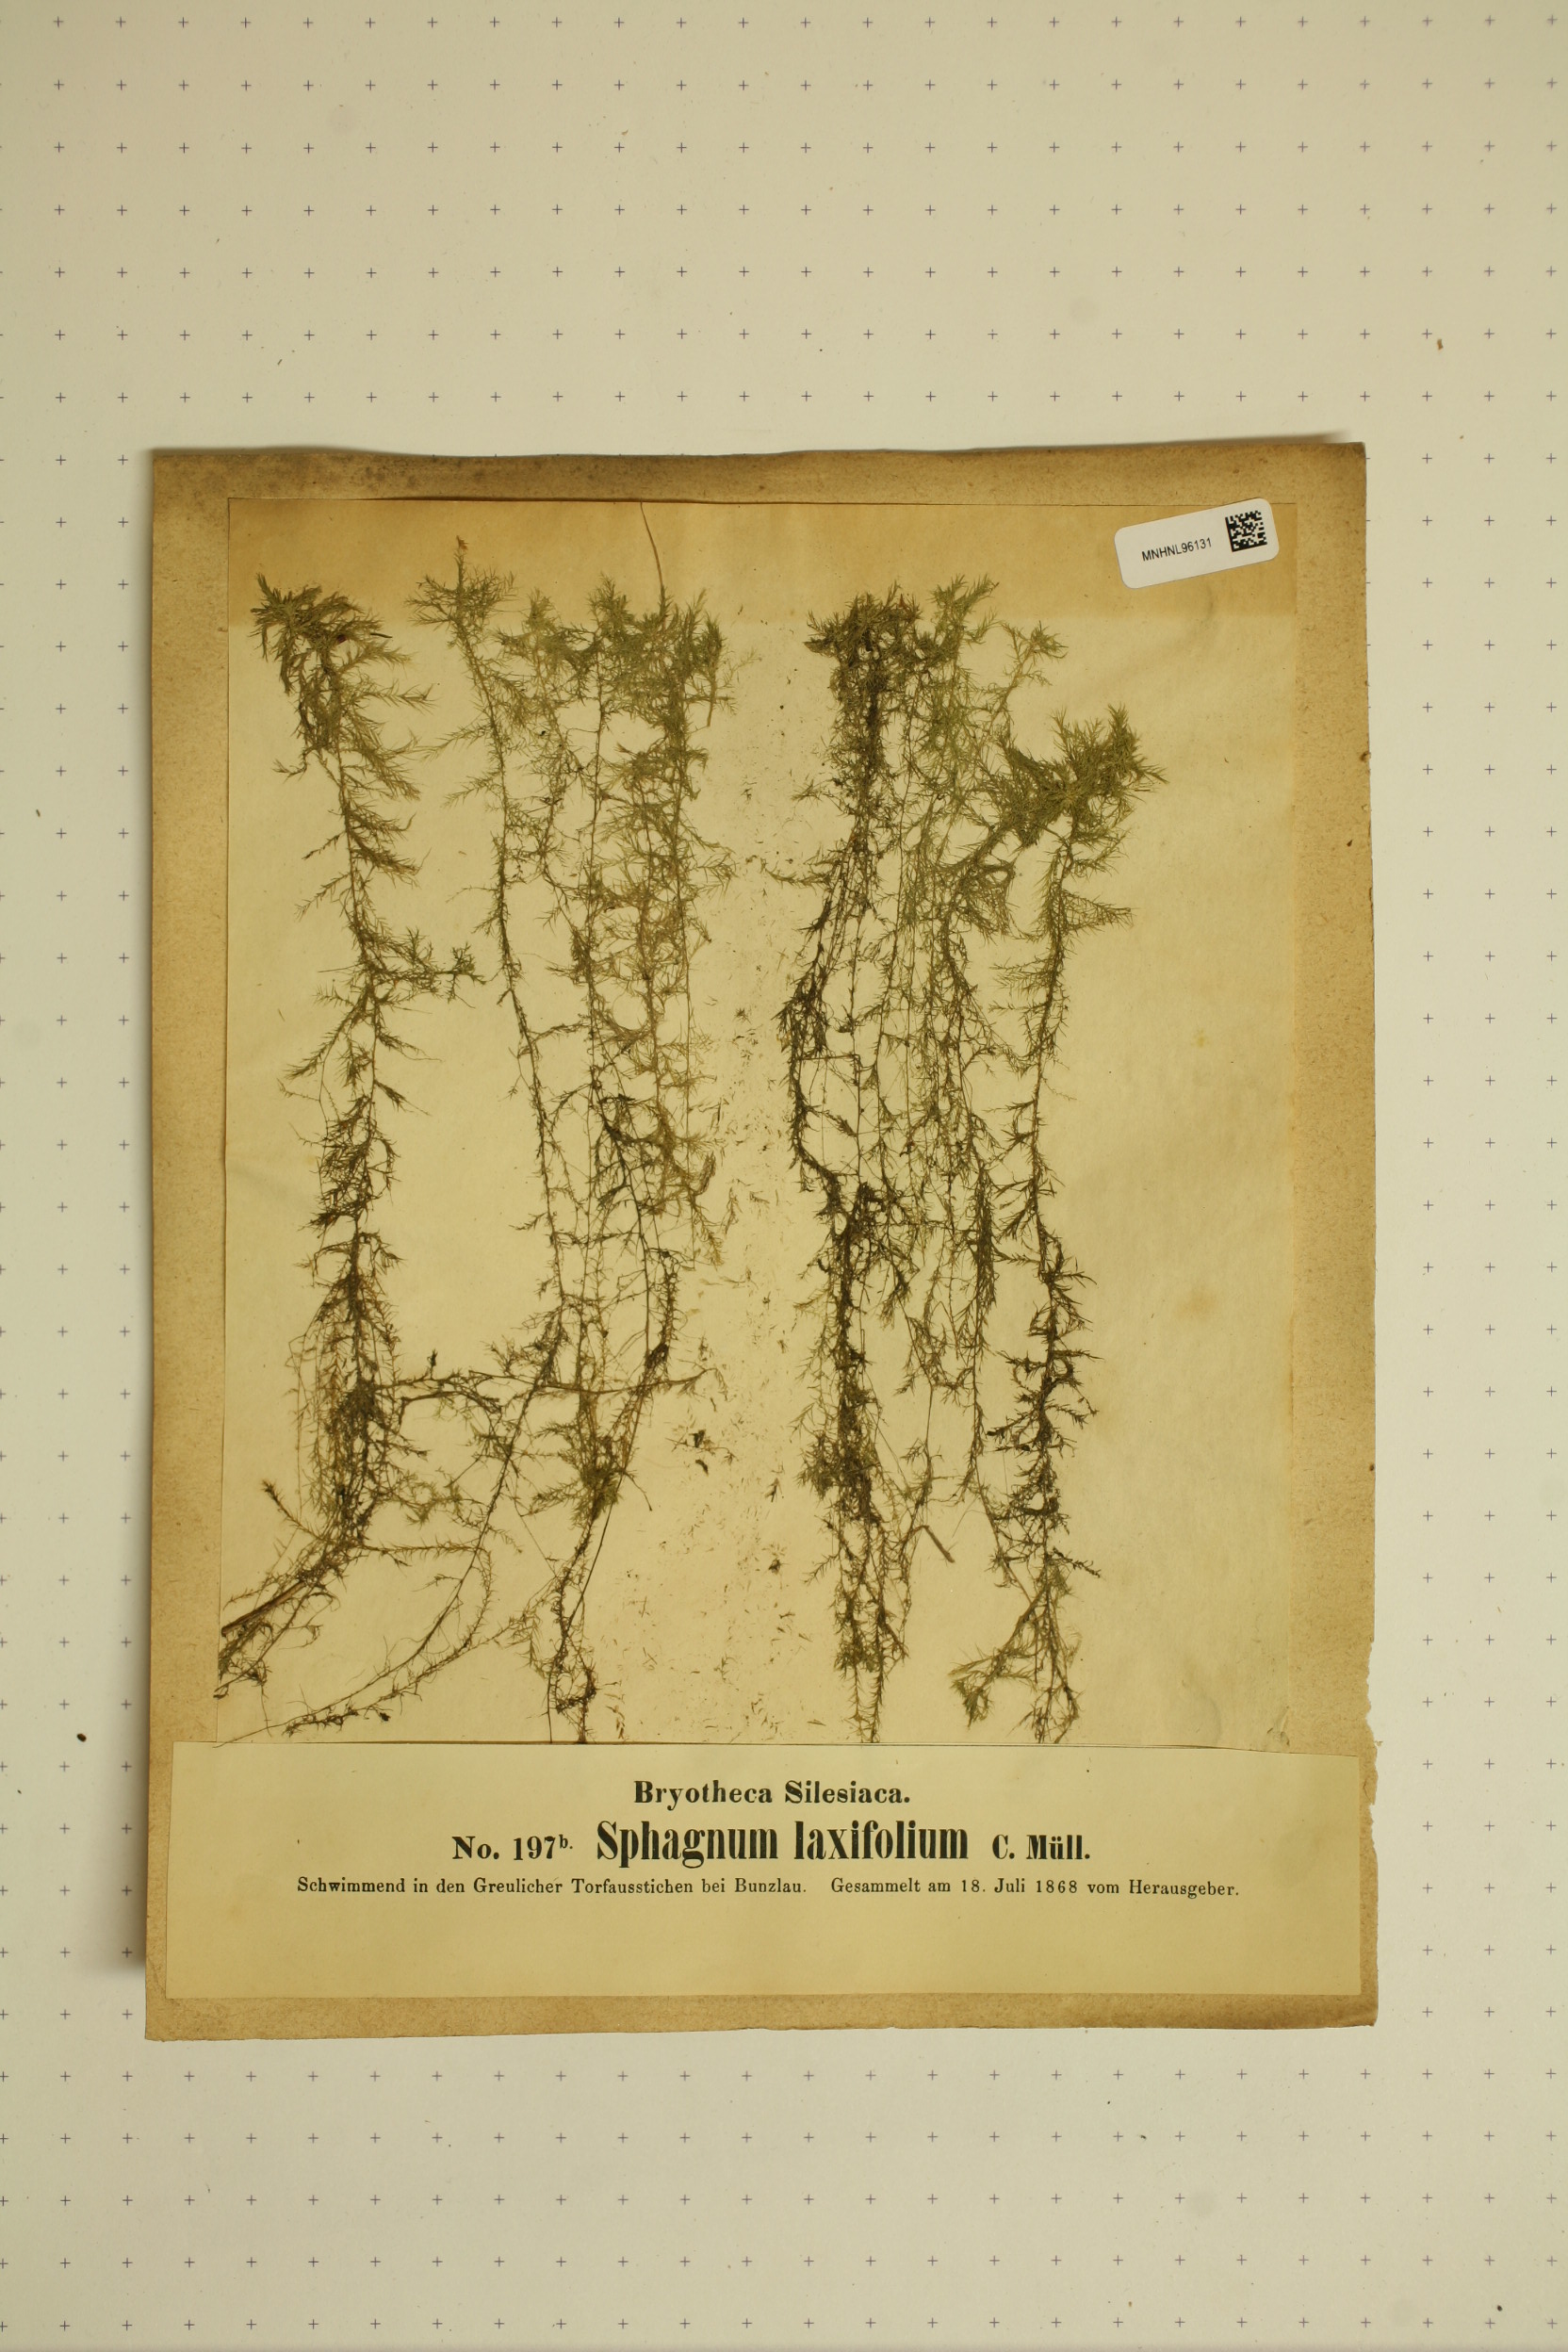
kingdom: Plantae
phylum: Bryophyta
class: Sphagnopsida
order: Sphagnales
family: Sphagnaceae
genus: Sphagnum
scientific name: Sphagnum cuspidatum
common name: Feathery peat moss
